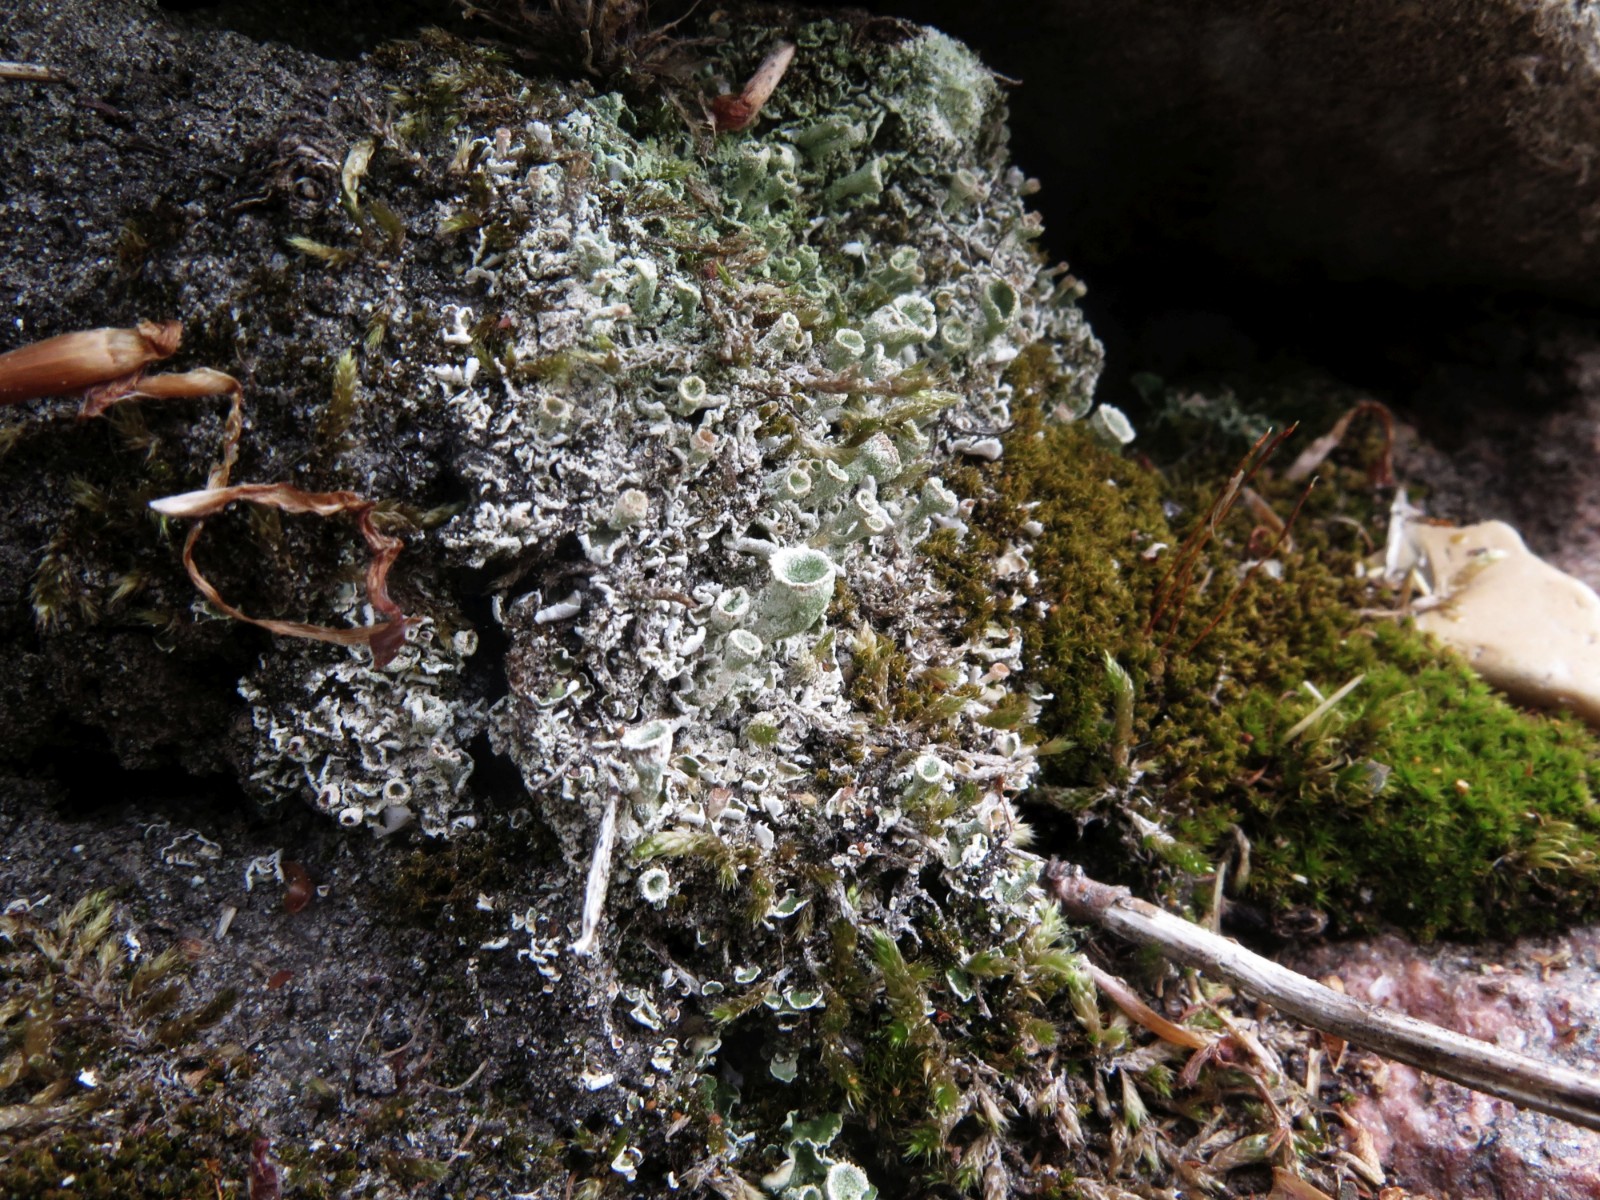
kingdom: Fungi
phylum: Ascomycota
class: Lecanoromycetes
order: Lecanorales
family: Cladoniaceae
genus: Cladonia
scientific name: Cladonia humilis
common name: lav bægerlav
